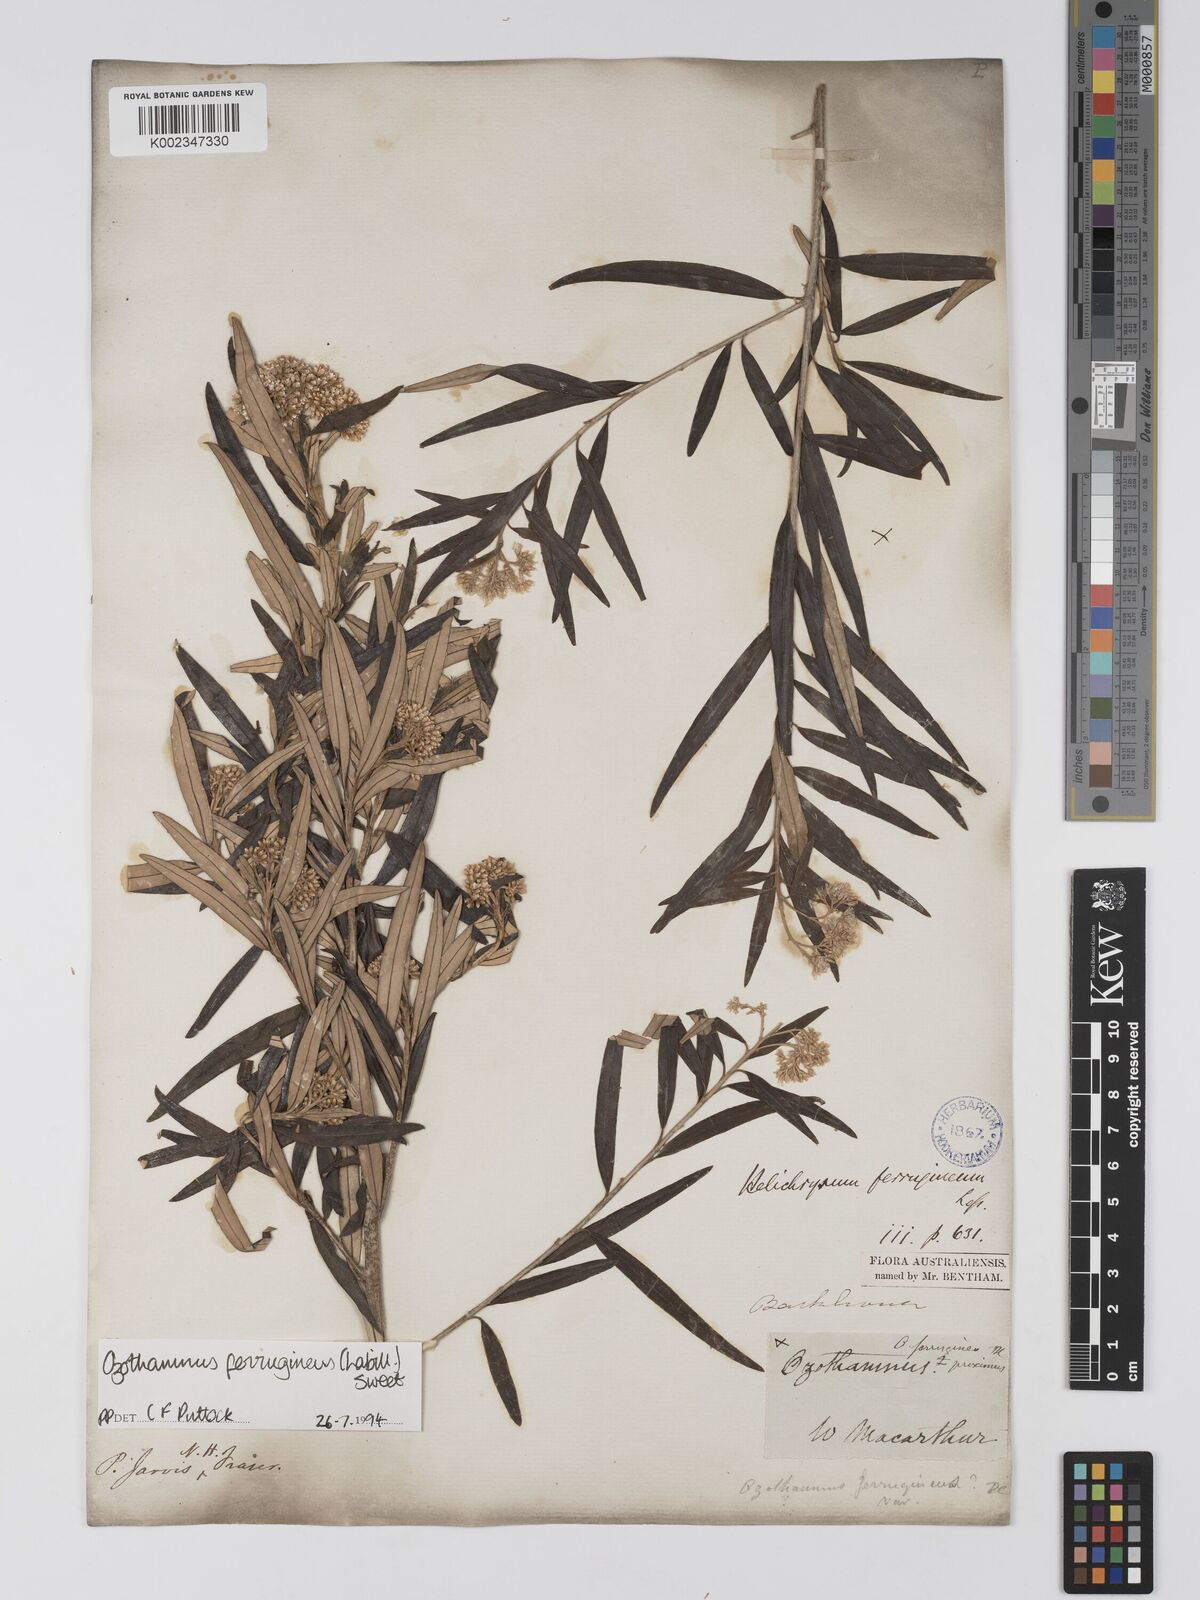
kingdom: Plantae
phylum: Tracheophyta
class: Magnoliopsida
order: Asterales
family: Asteraceae
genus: Ozothamnus
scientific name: Ozothamnus argophyllus
